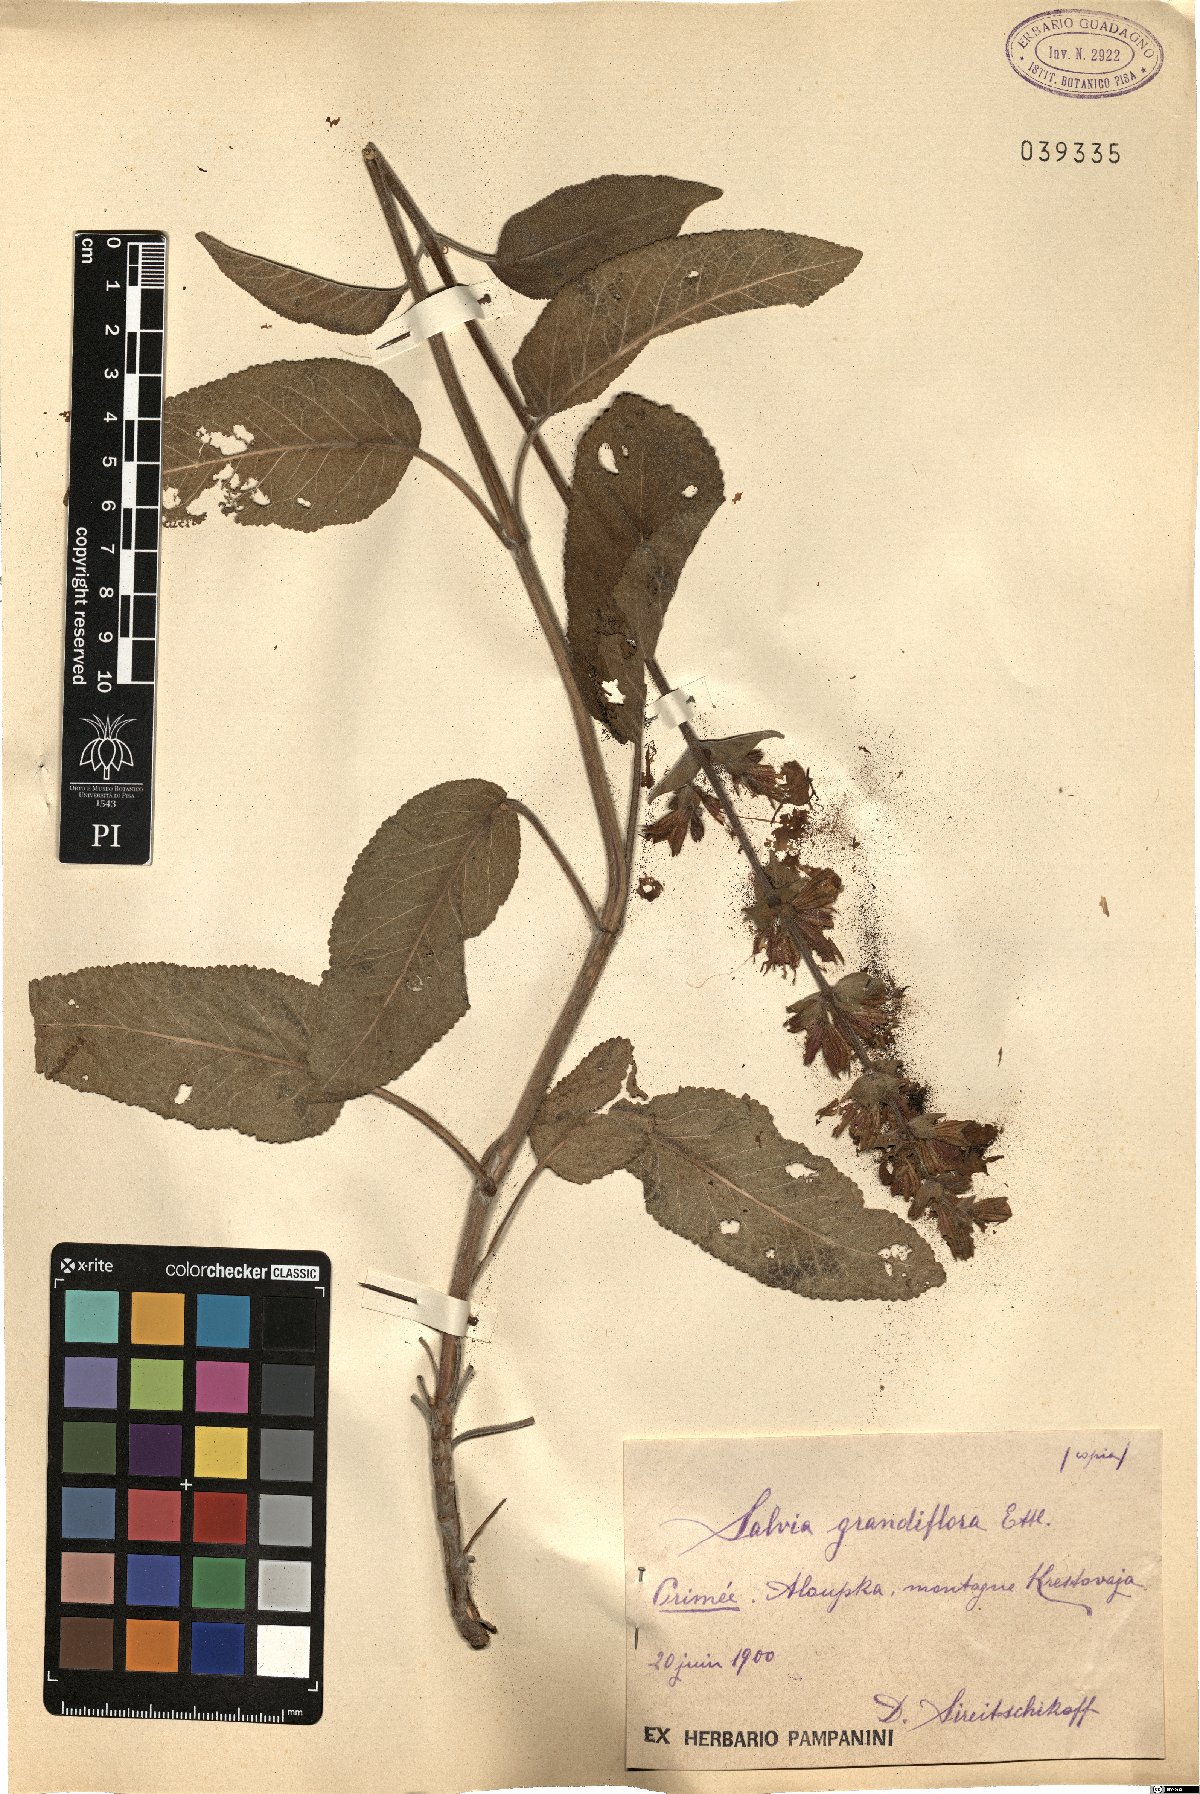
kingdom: Plantae
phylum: Tracheophyta
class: Magnoliopsida
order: Lamiales
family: Lamiaceae
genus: Salvia
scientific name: Salvia grandiflora
